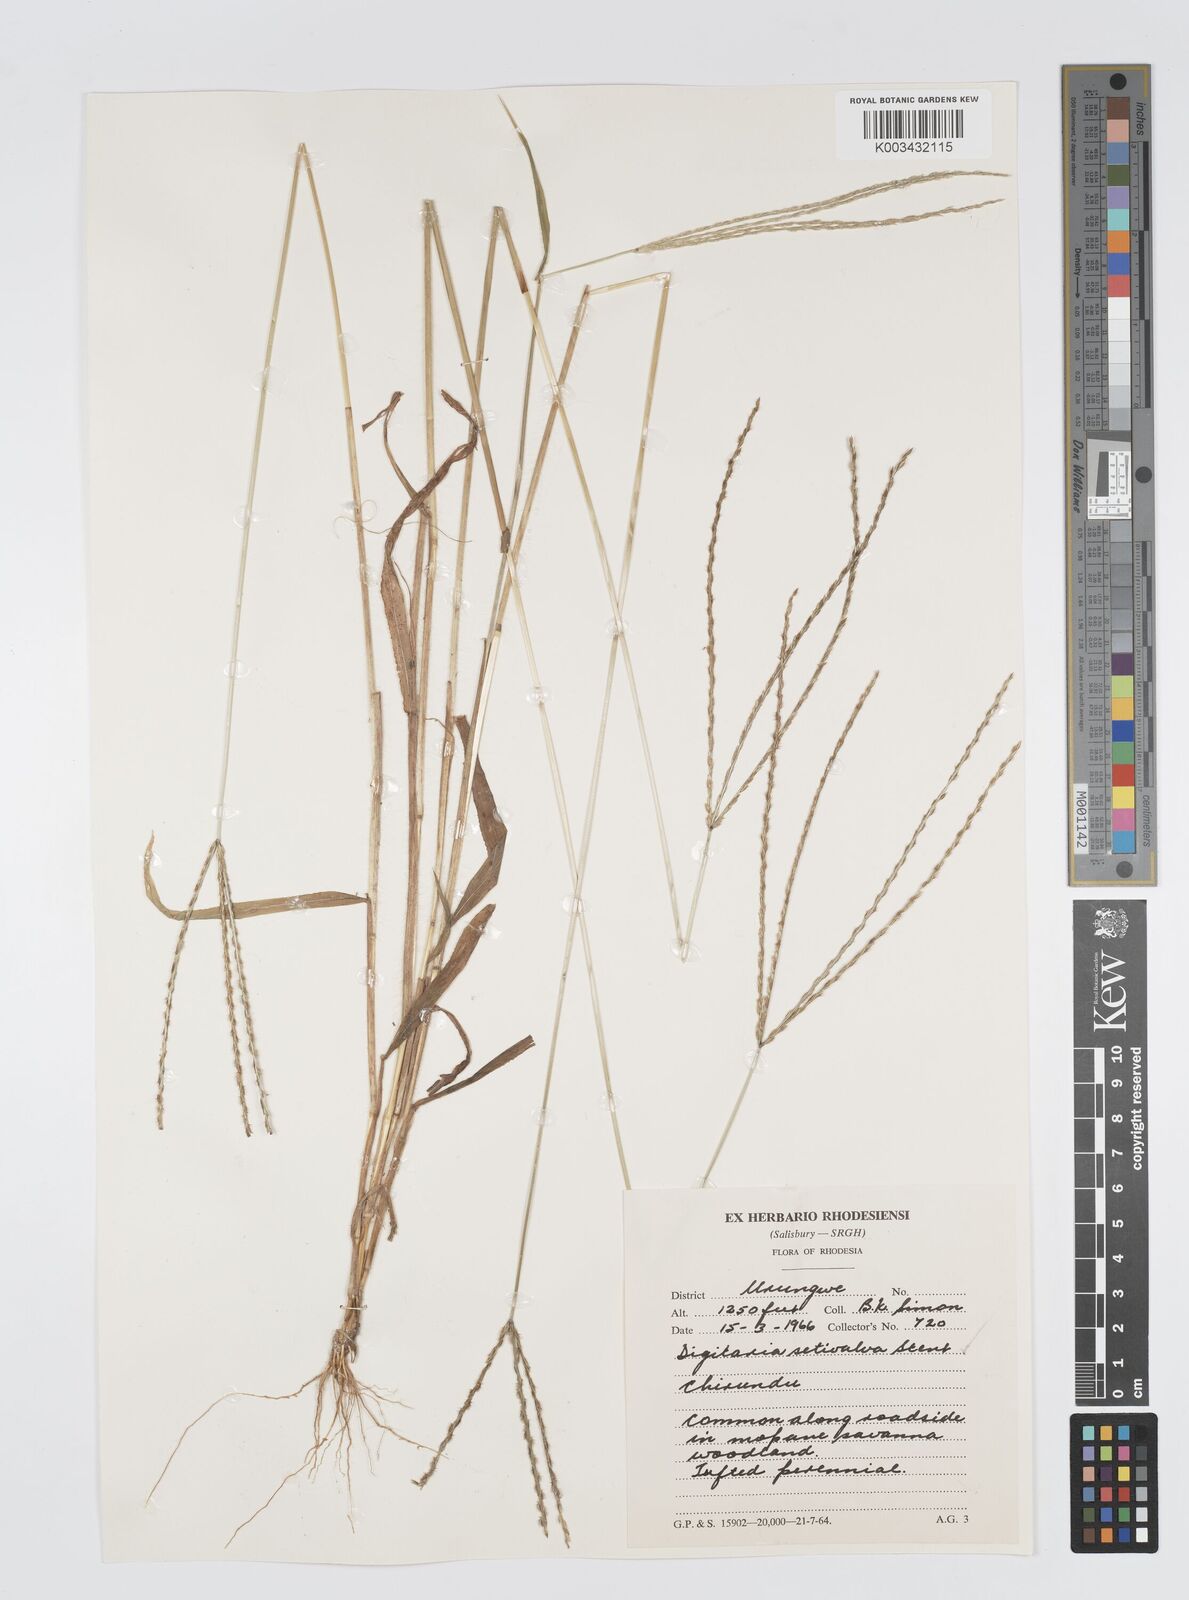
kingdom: Plantae
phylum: Tracheophyta
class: Liliopsida
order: Poales
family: Poaceae
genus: Digitaria
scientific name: Digitaria milanjiana
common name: Madagascar crabgrass
